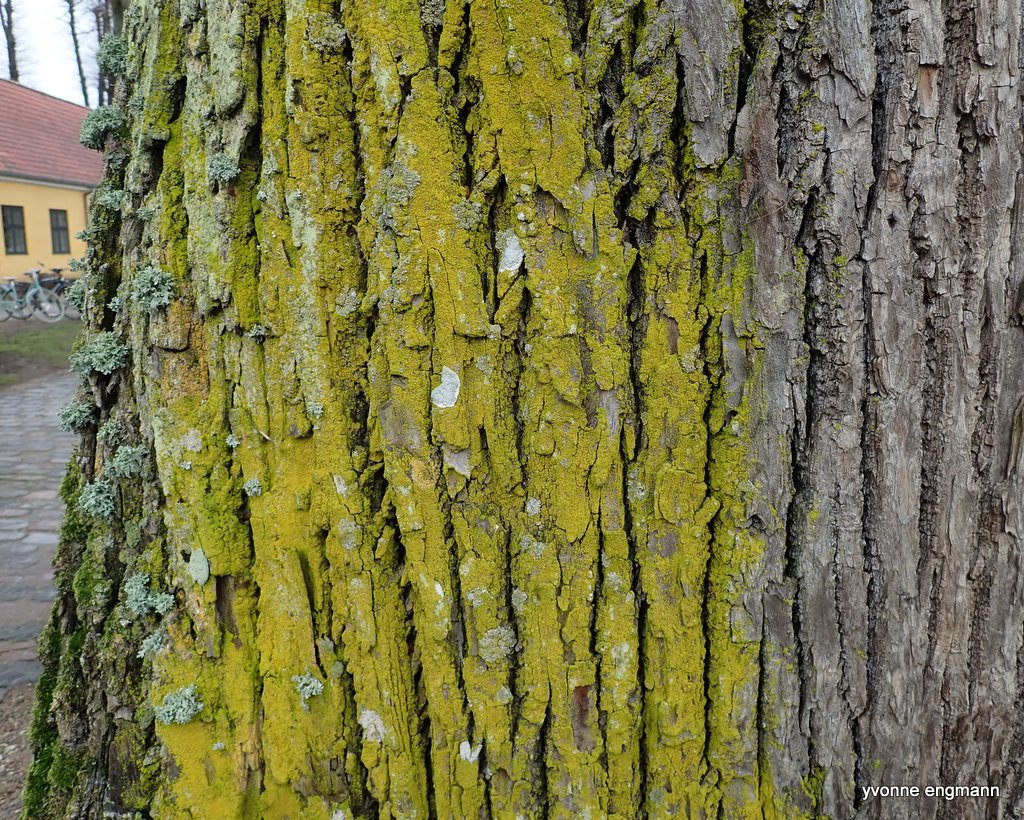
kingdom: Fungi
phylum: Ascomycota
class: Candelariomycetes
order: Candelariales
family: Candelariaceae
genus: Candelaria
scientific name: Candelaria pacifica
